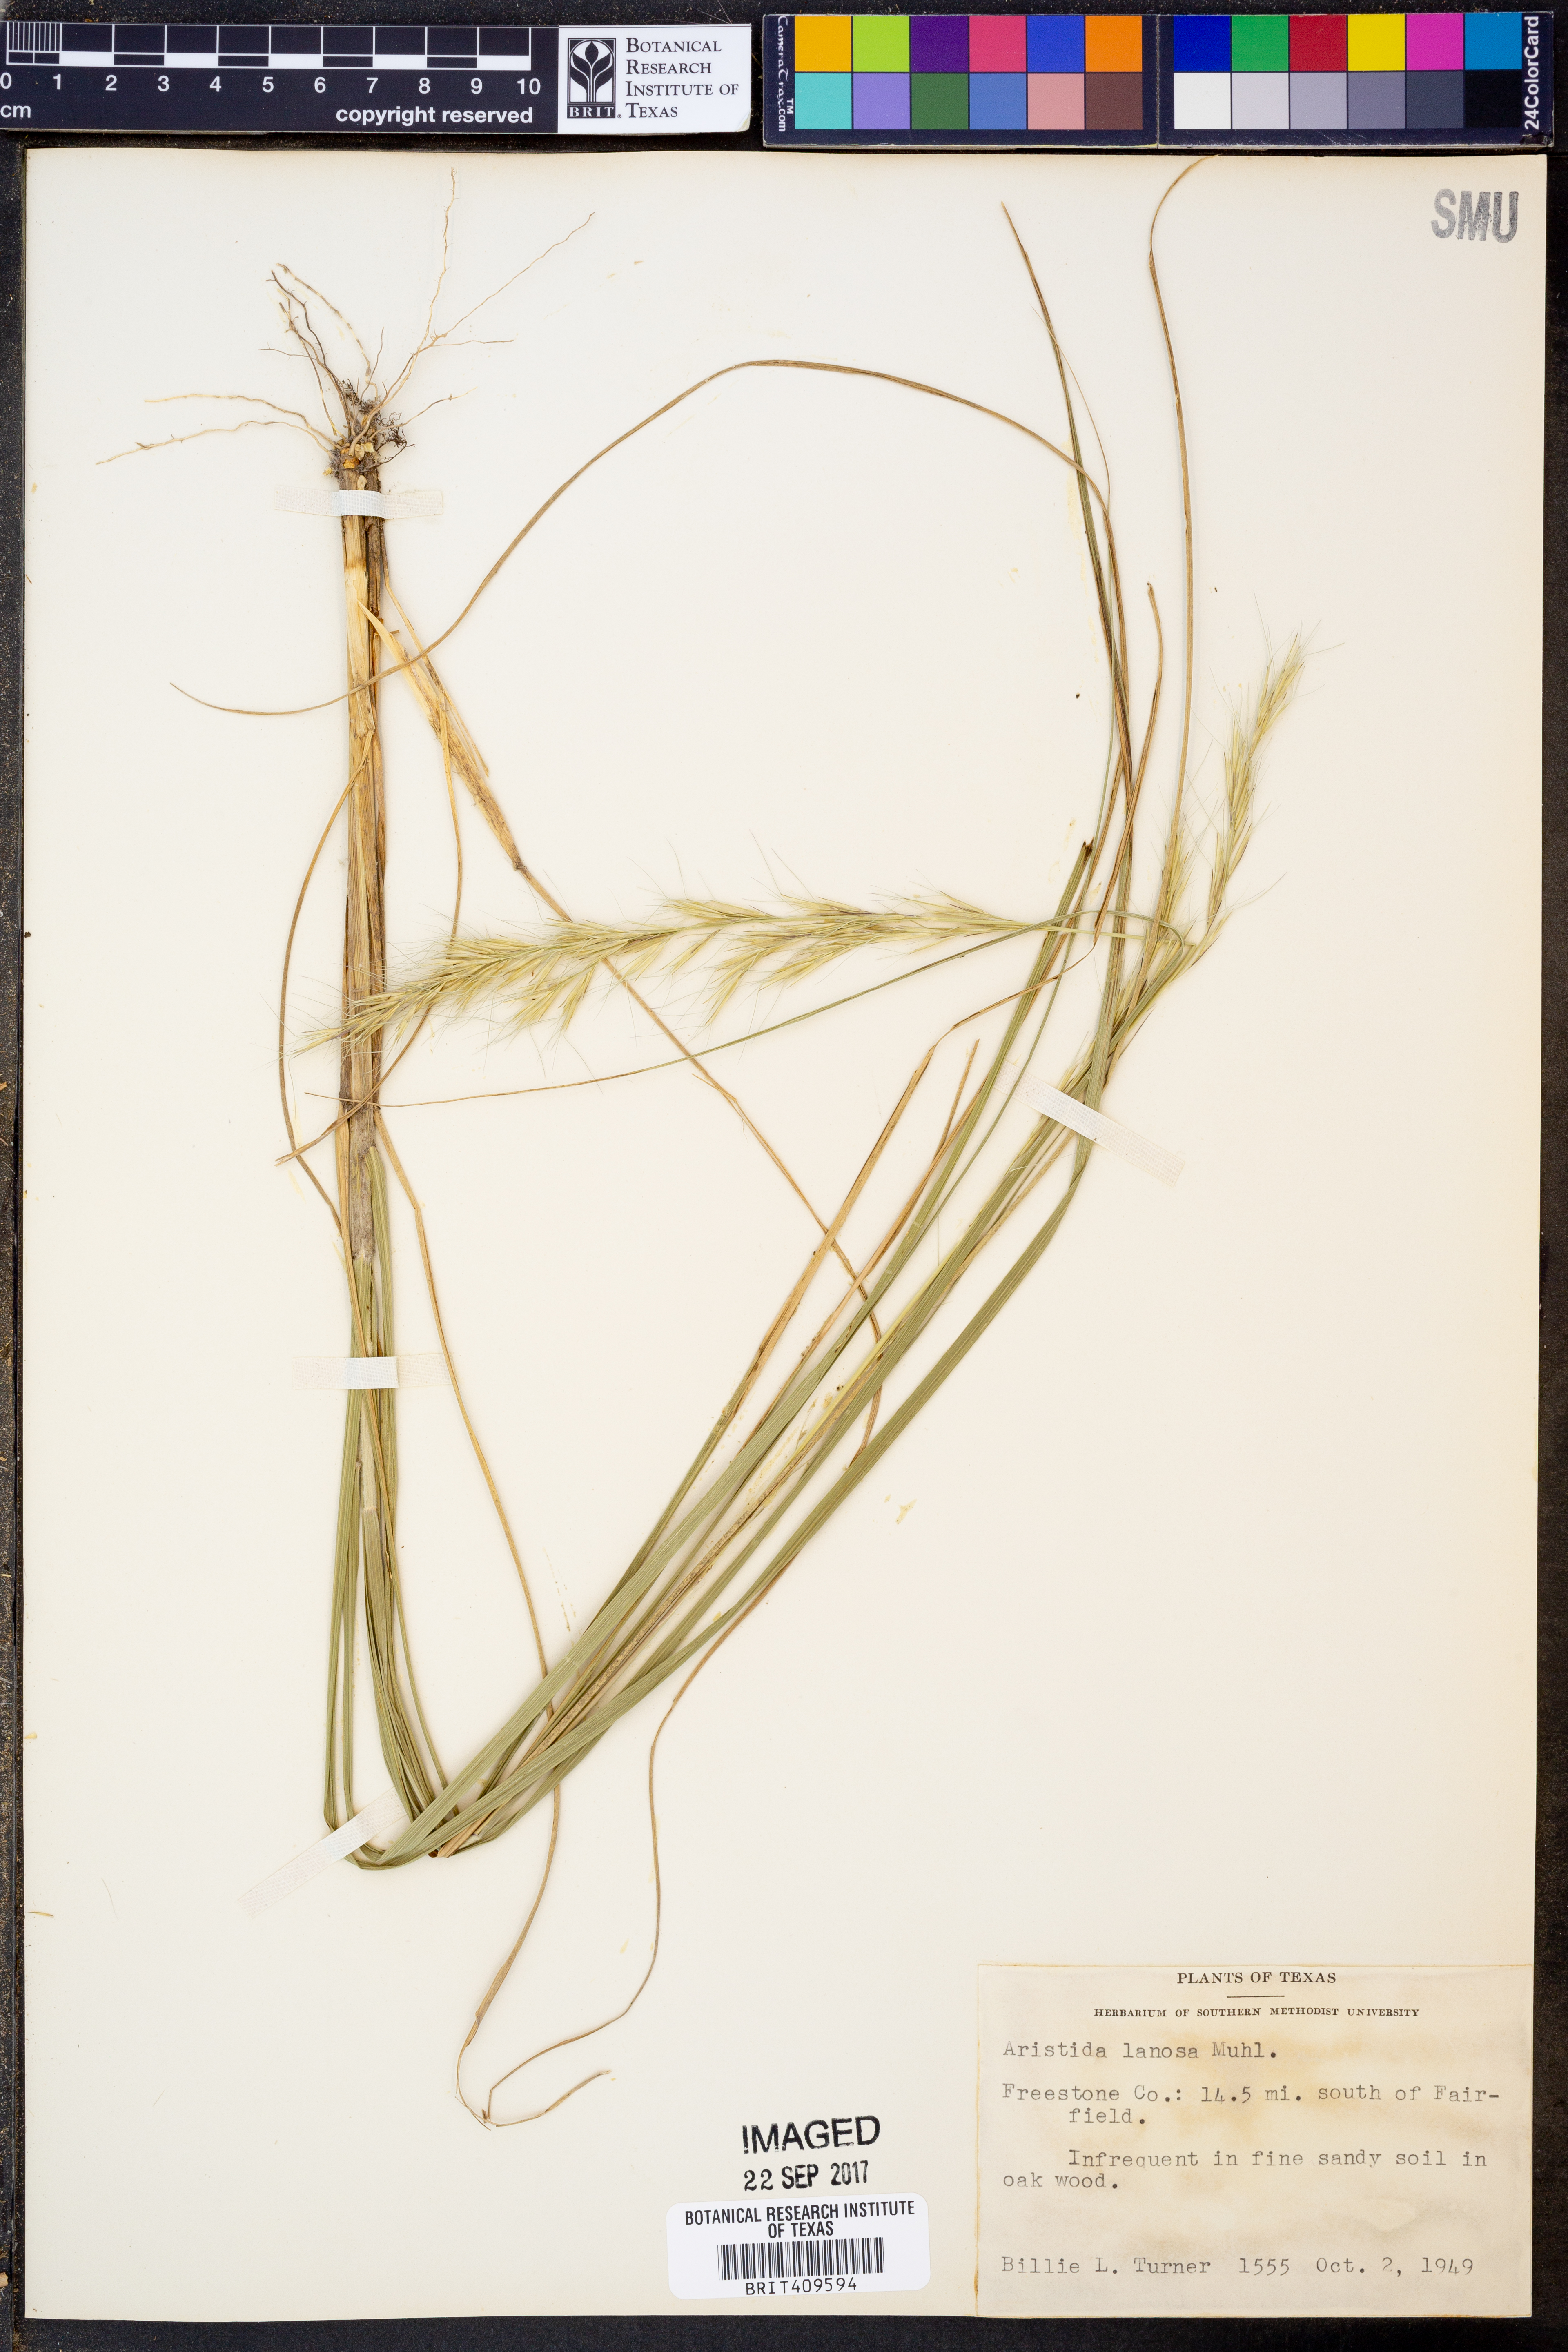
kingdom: Plantae
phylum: Tracheophyta
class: Liliopsida
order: Poales
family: Poaceae
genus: Aristida
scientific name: Aristida lanosa
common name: Woolly three-awn
